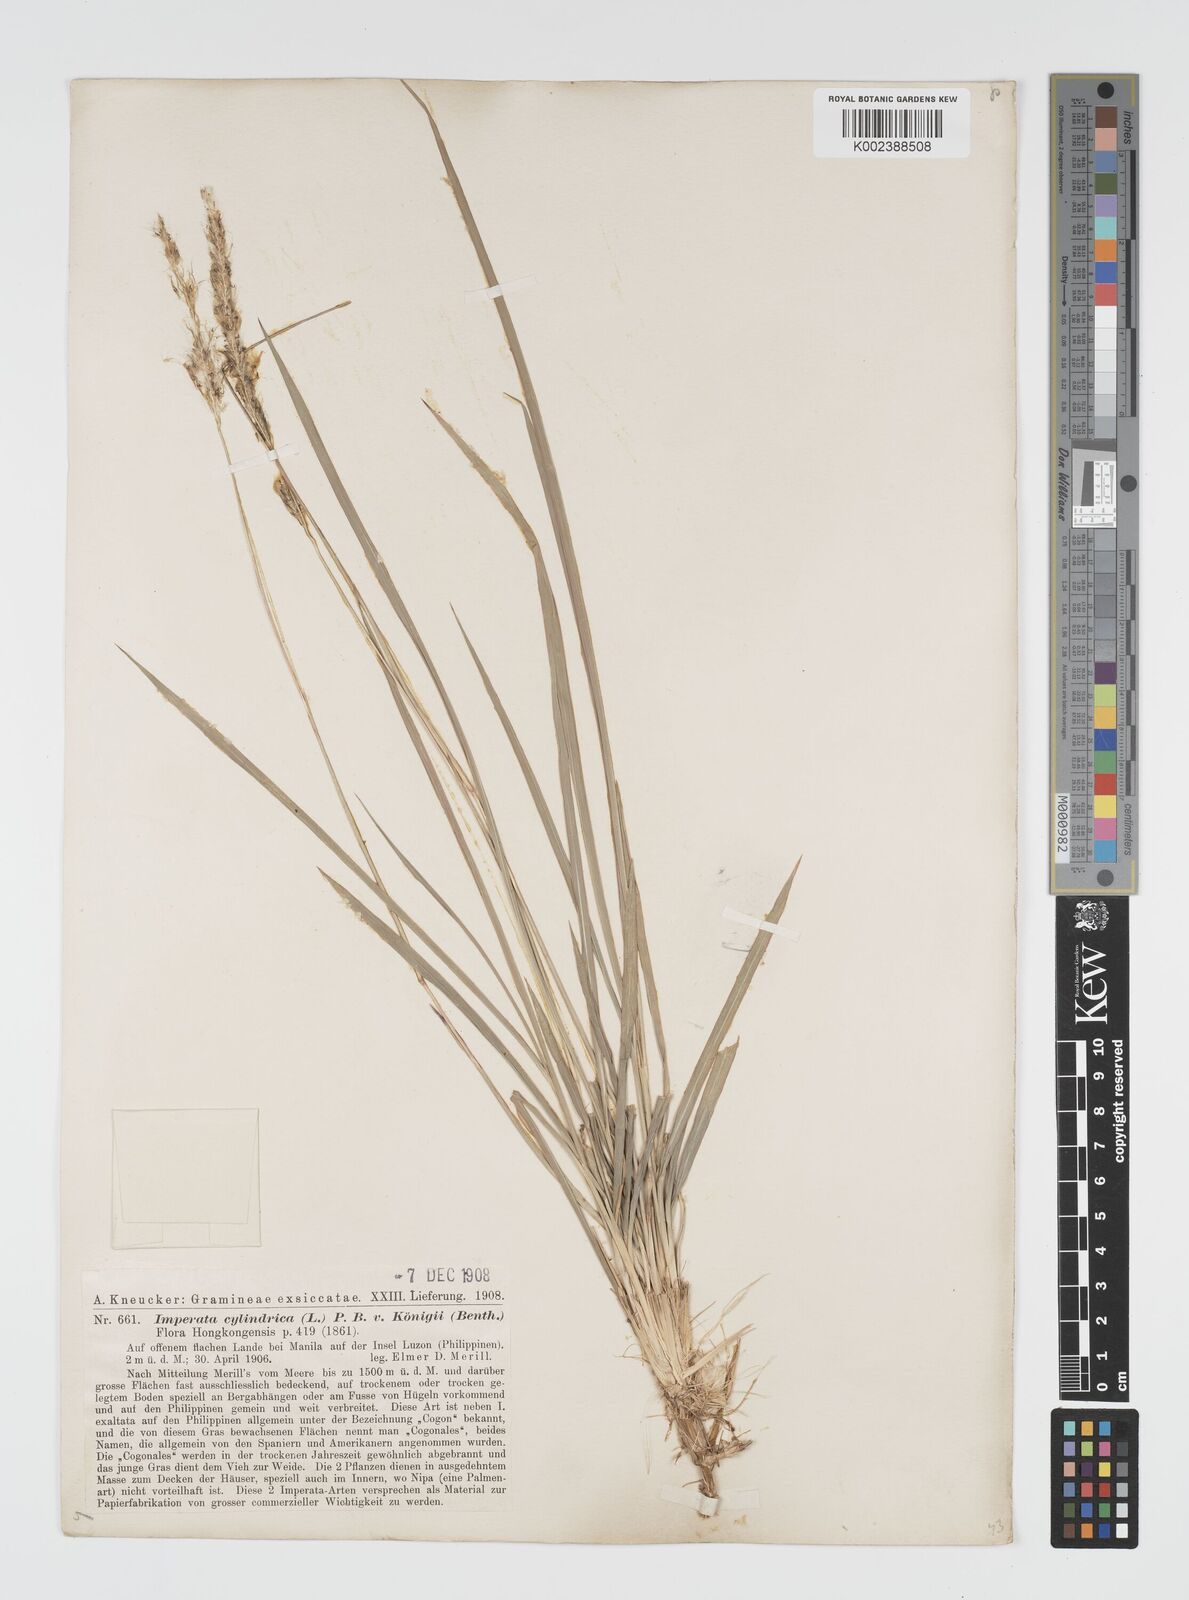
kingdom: Plantae
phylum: Tracheophyta
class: Liliopsida
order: Poales
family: Poaceae
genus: Imperata
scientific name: Imperata cylindrica
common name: Cogongrass
